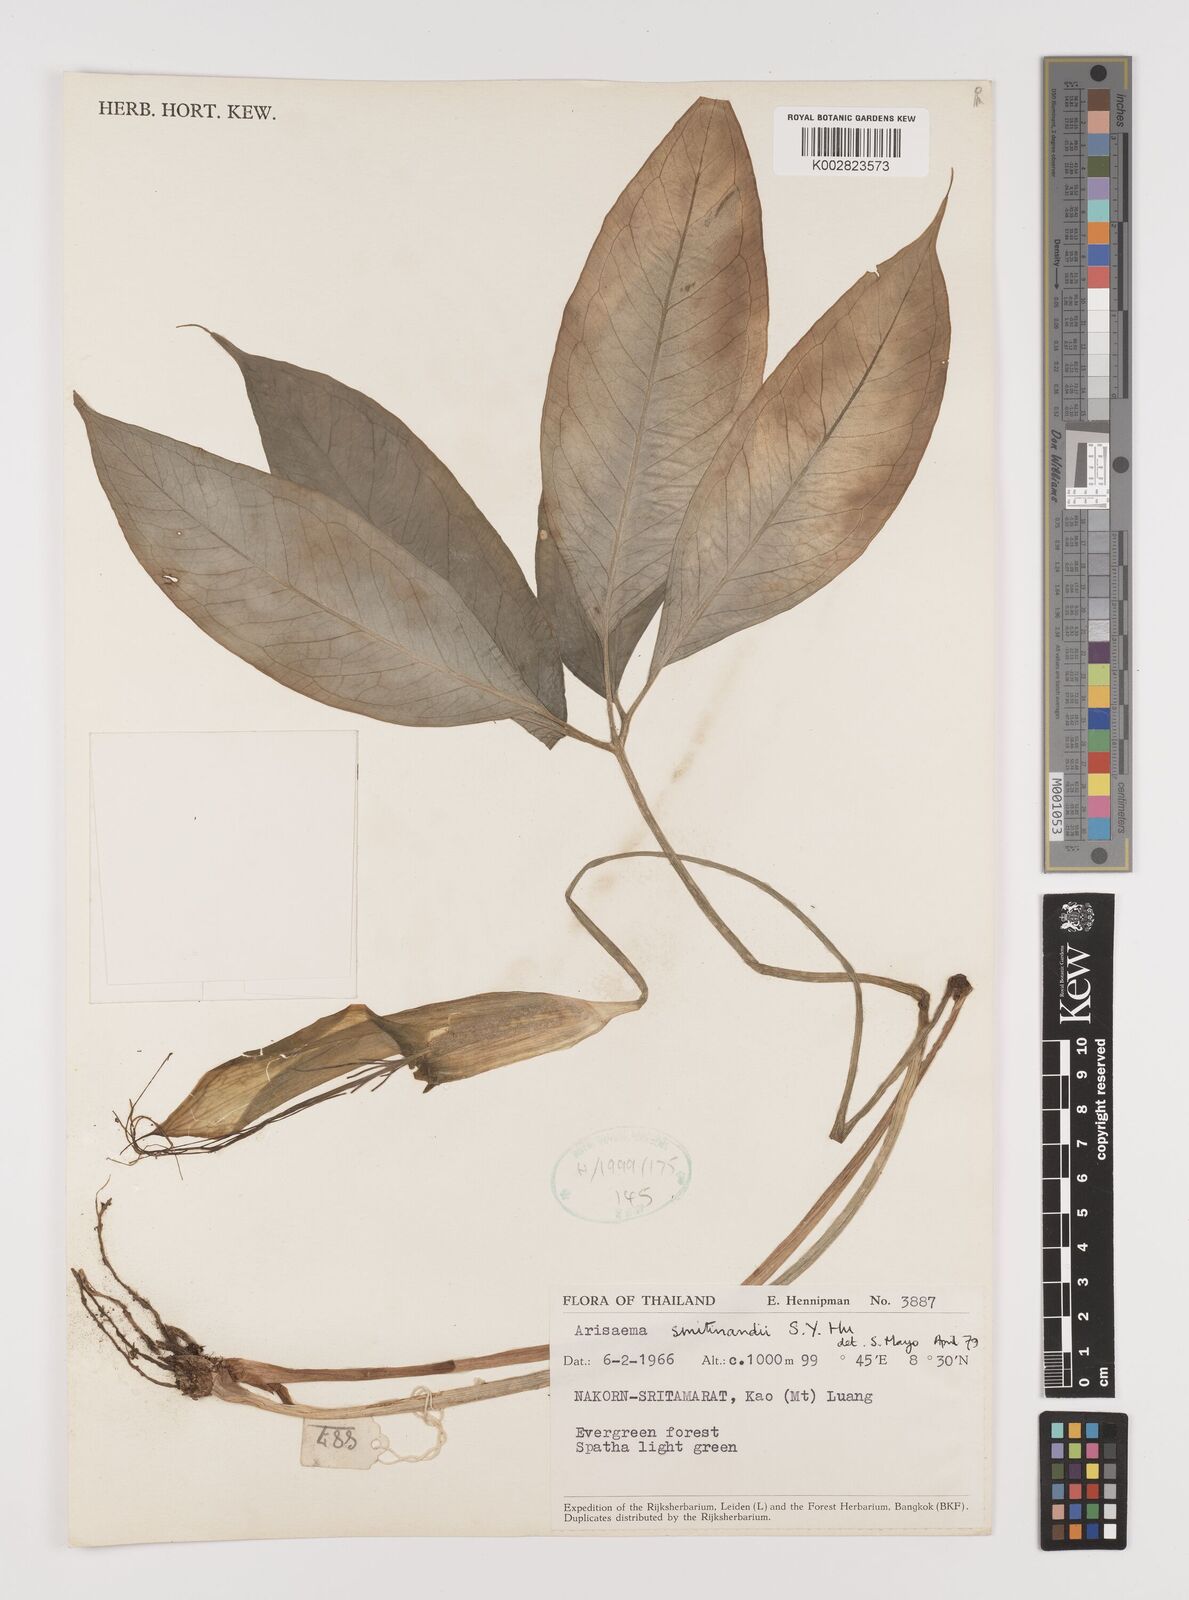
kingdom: Plantae
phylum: Tracheophyta
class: Liliopsida
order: Alismatales
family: Araceae
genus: Arisaema
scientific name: Arisaema chumponense
